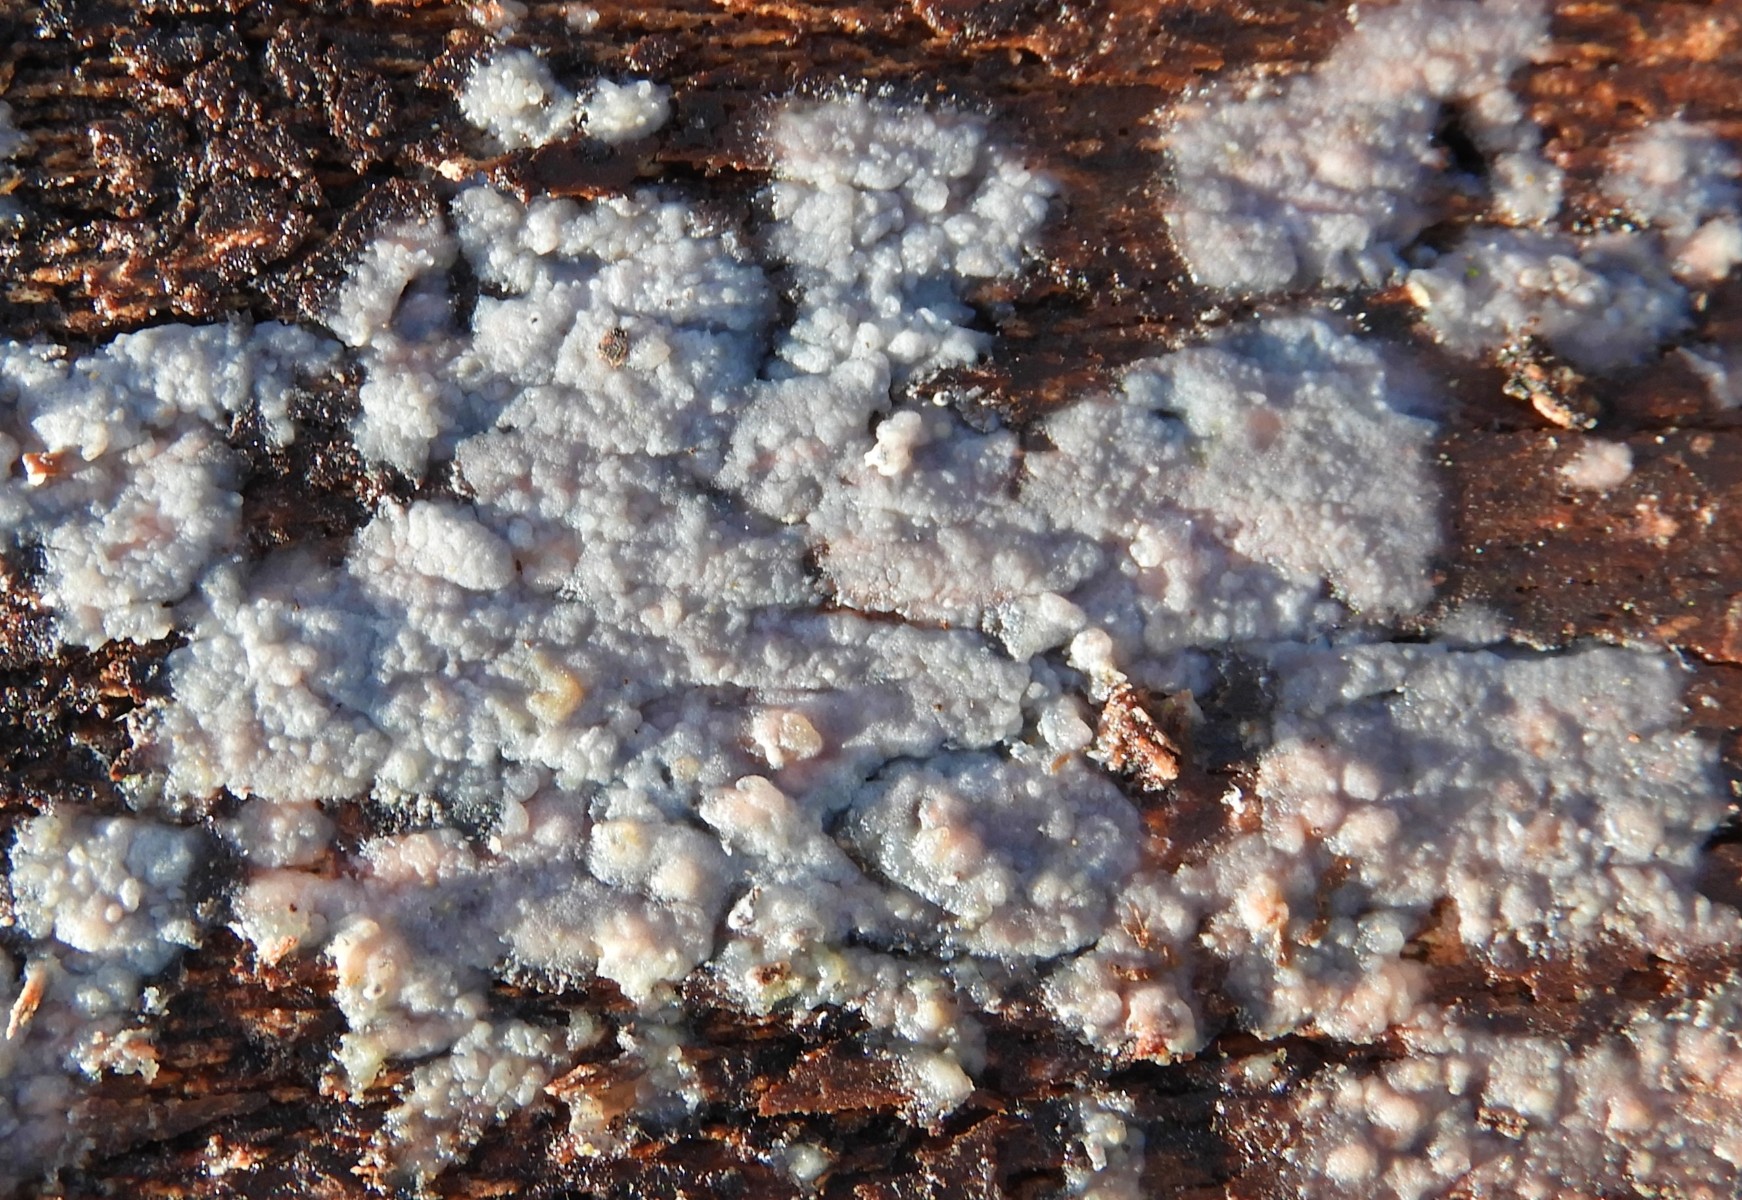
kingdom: Fungi
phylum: Basidiomycota
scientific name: Basidiomycota
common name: basidiesvampe
